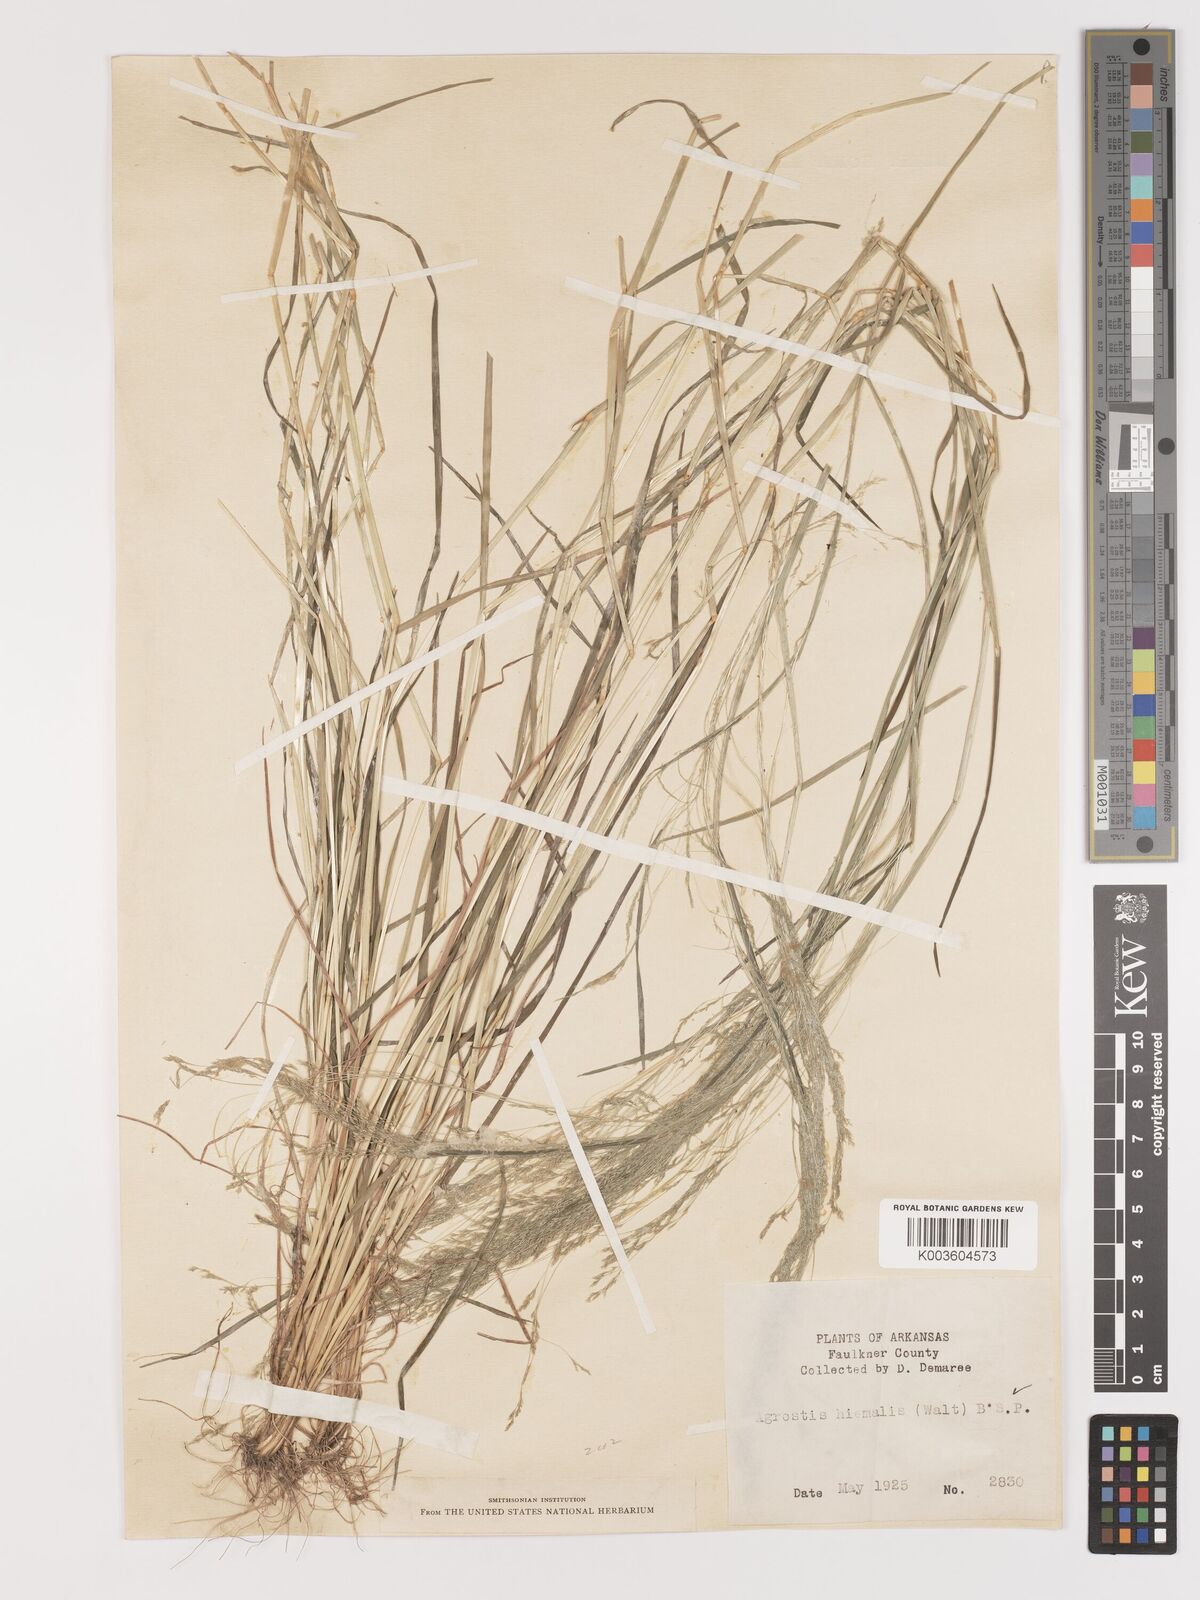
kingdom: Plantae
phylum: Tracheophyta
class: Liliopsida
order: Poales
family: Poaceae
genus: Agrostis
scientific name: Agrostis hyemalis
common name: Small bent
